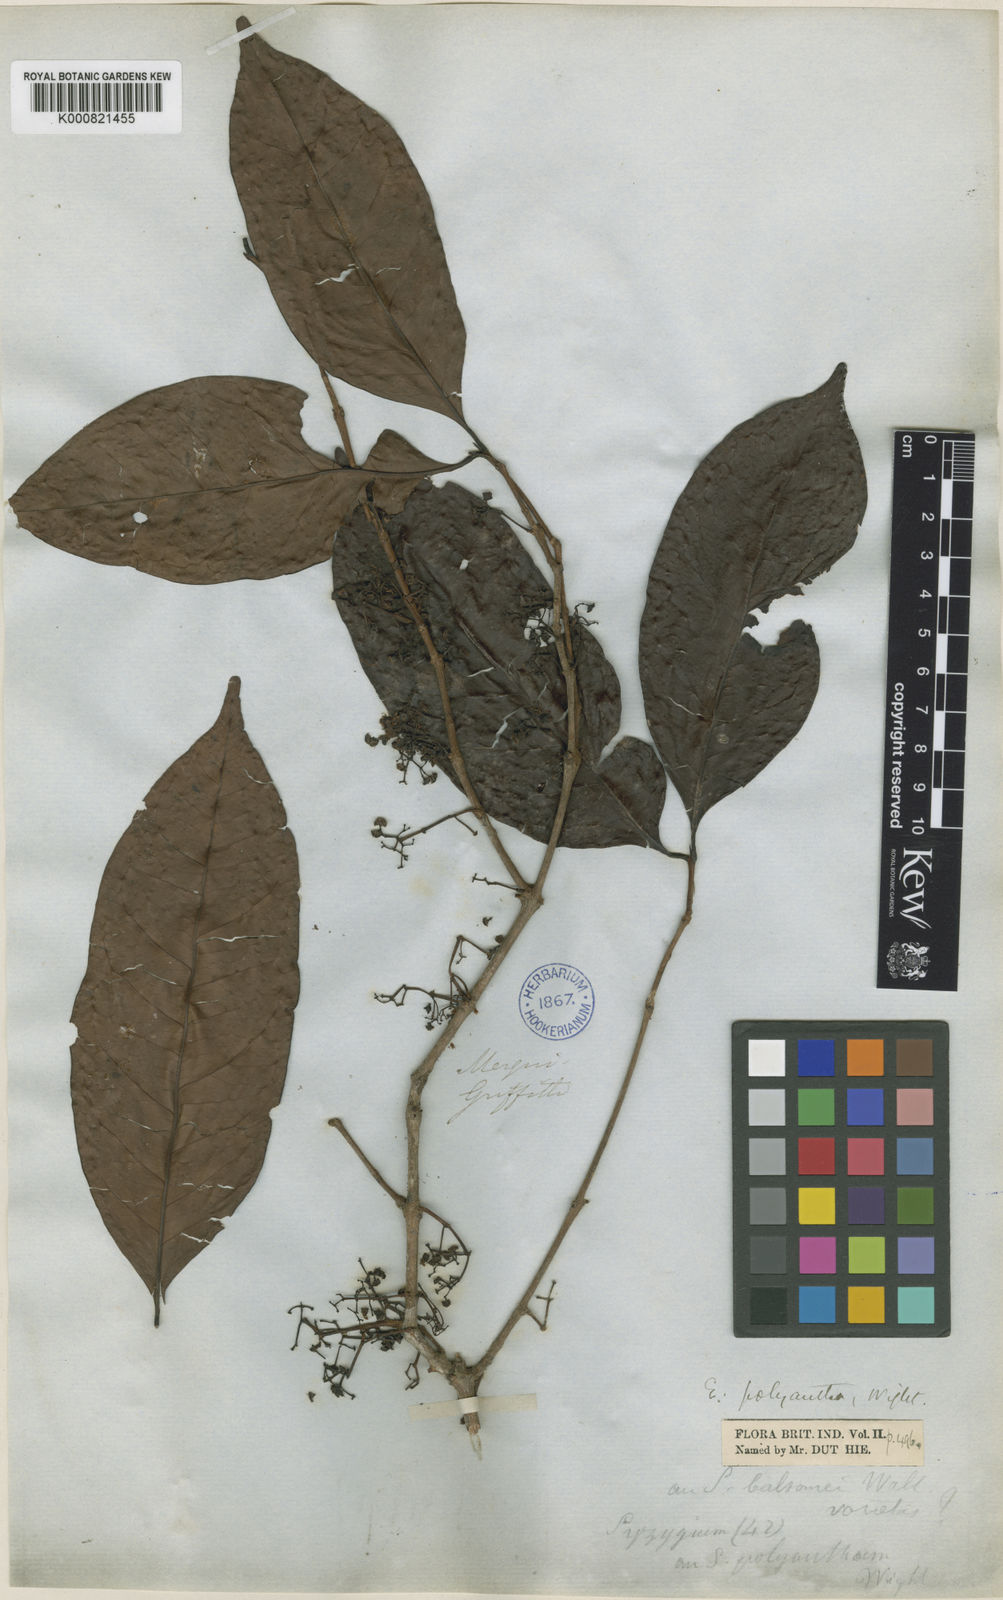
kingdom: Plantae
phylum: Tracheophyta
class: Magnoliopsida
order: Myrtales
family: Myrtaceae
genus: Syzygium
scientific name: Syzygium polyanthum
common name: Indonesian bayleaf
